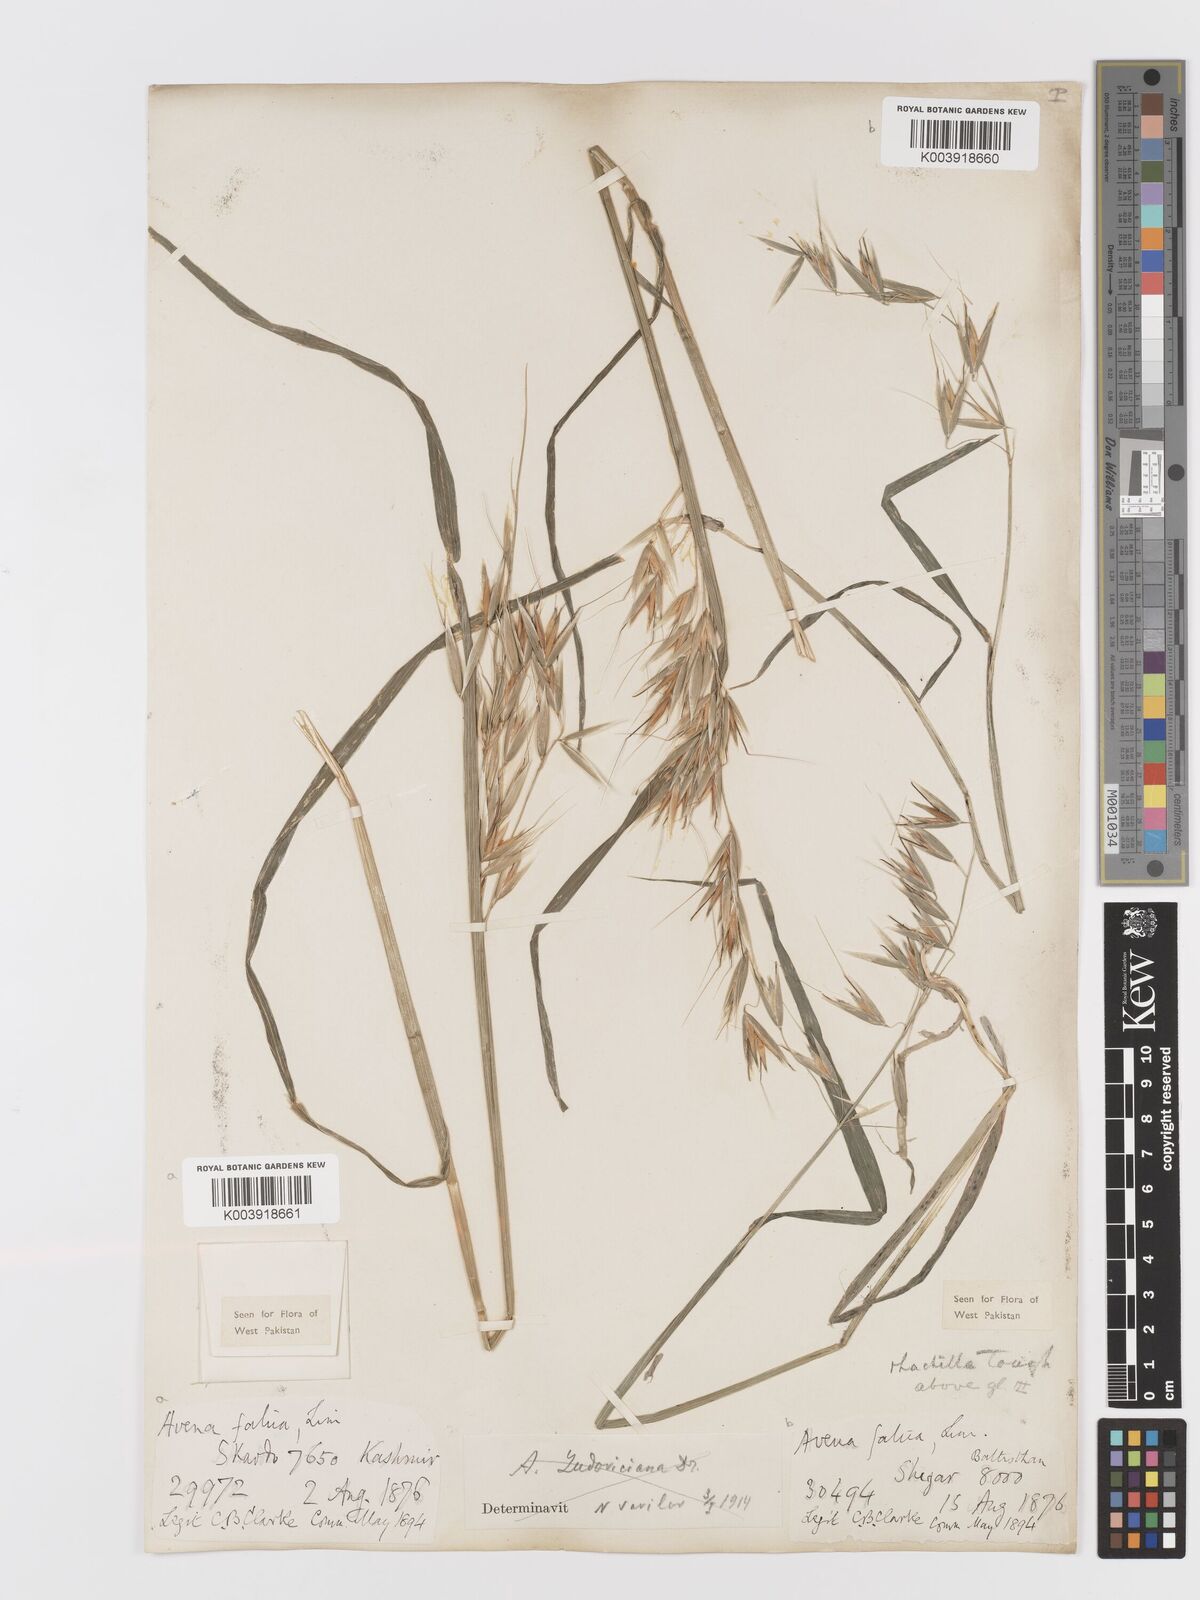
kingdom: Plantae
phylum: Tracheophyta
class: Liliopsida
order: Poales
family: Poaceae
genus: Avena
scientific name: Avena fatua
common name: Wild oat
